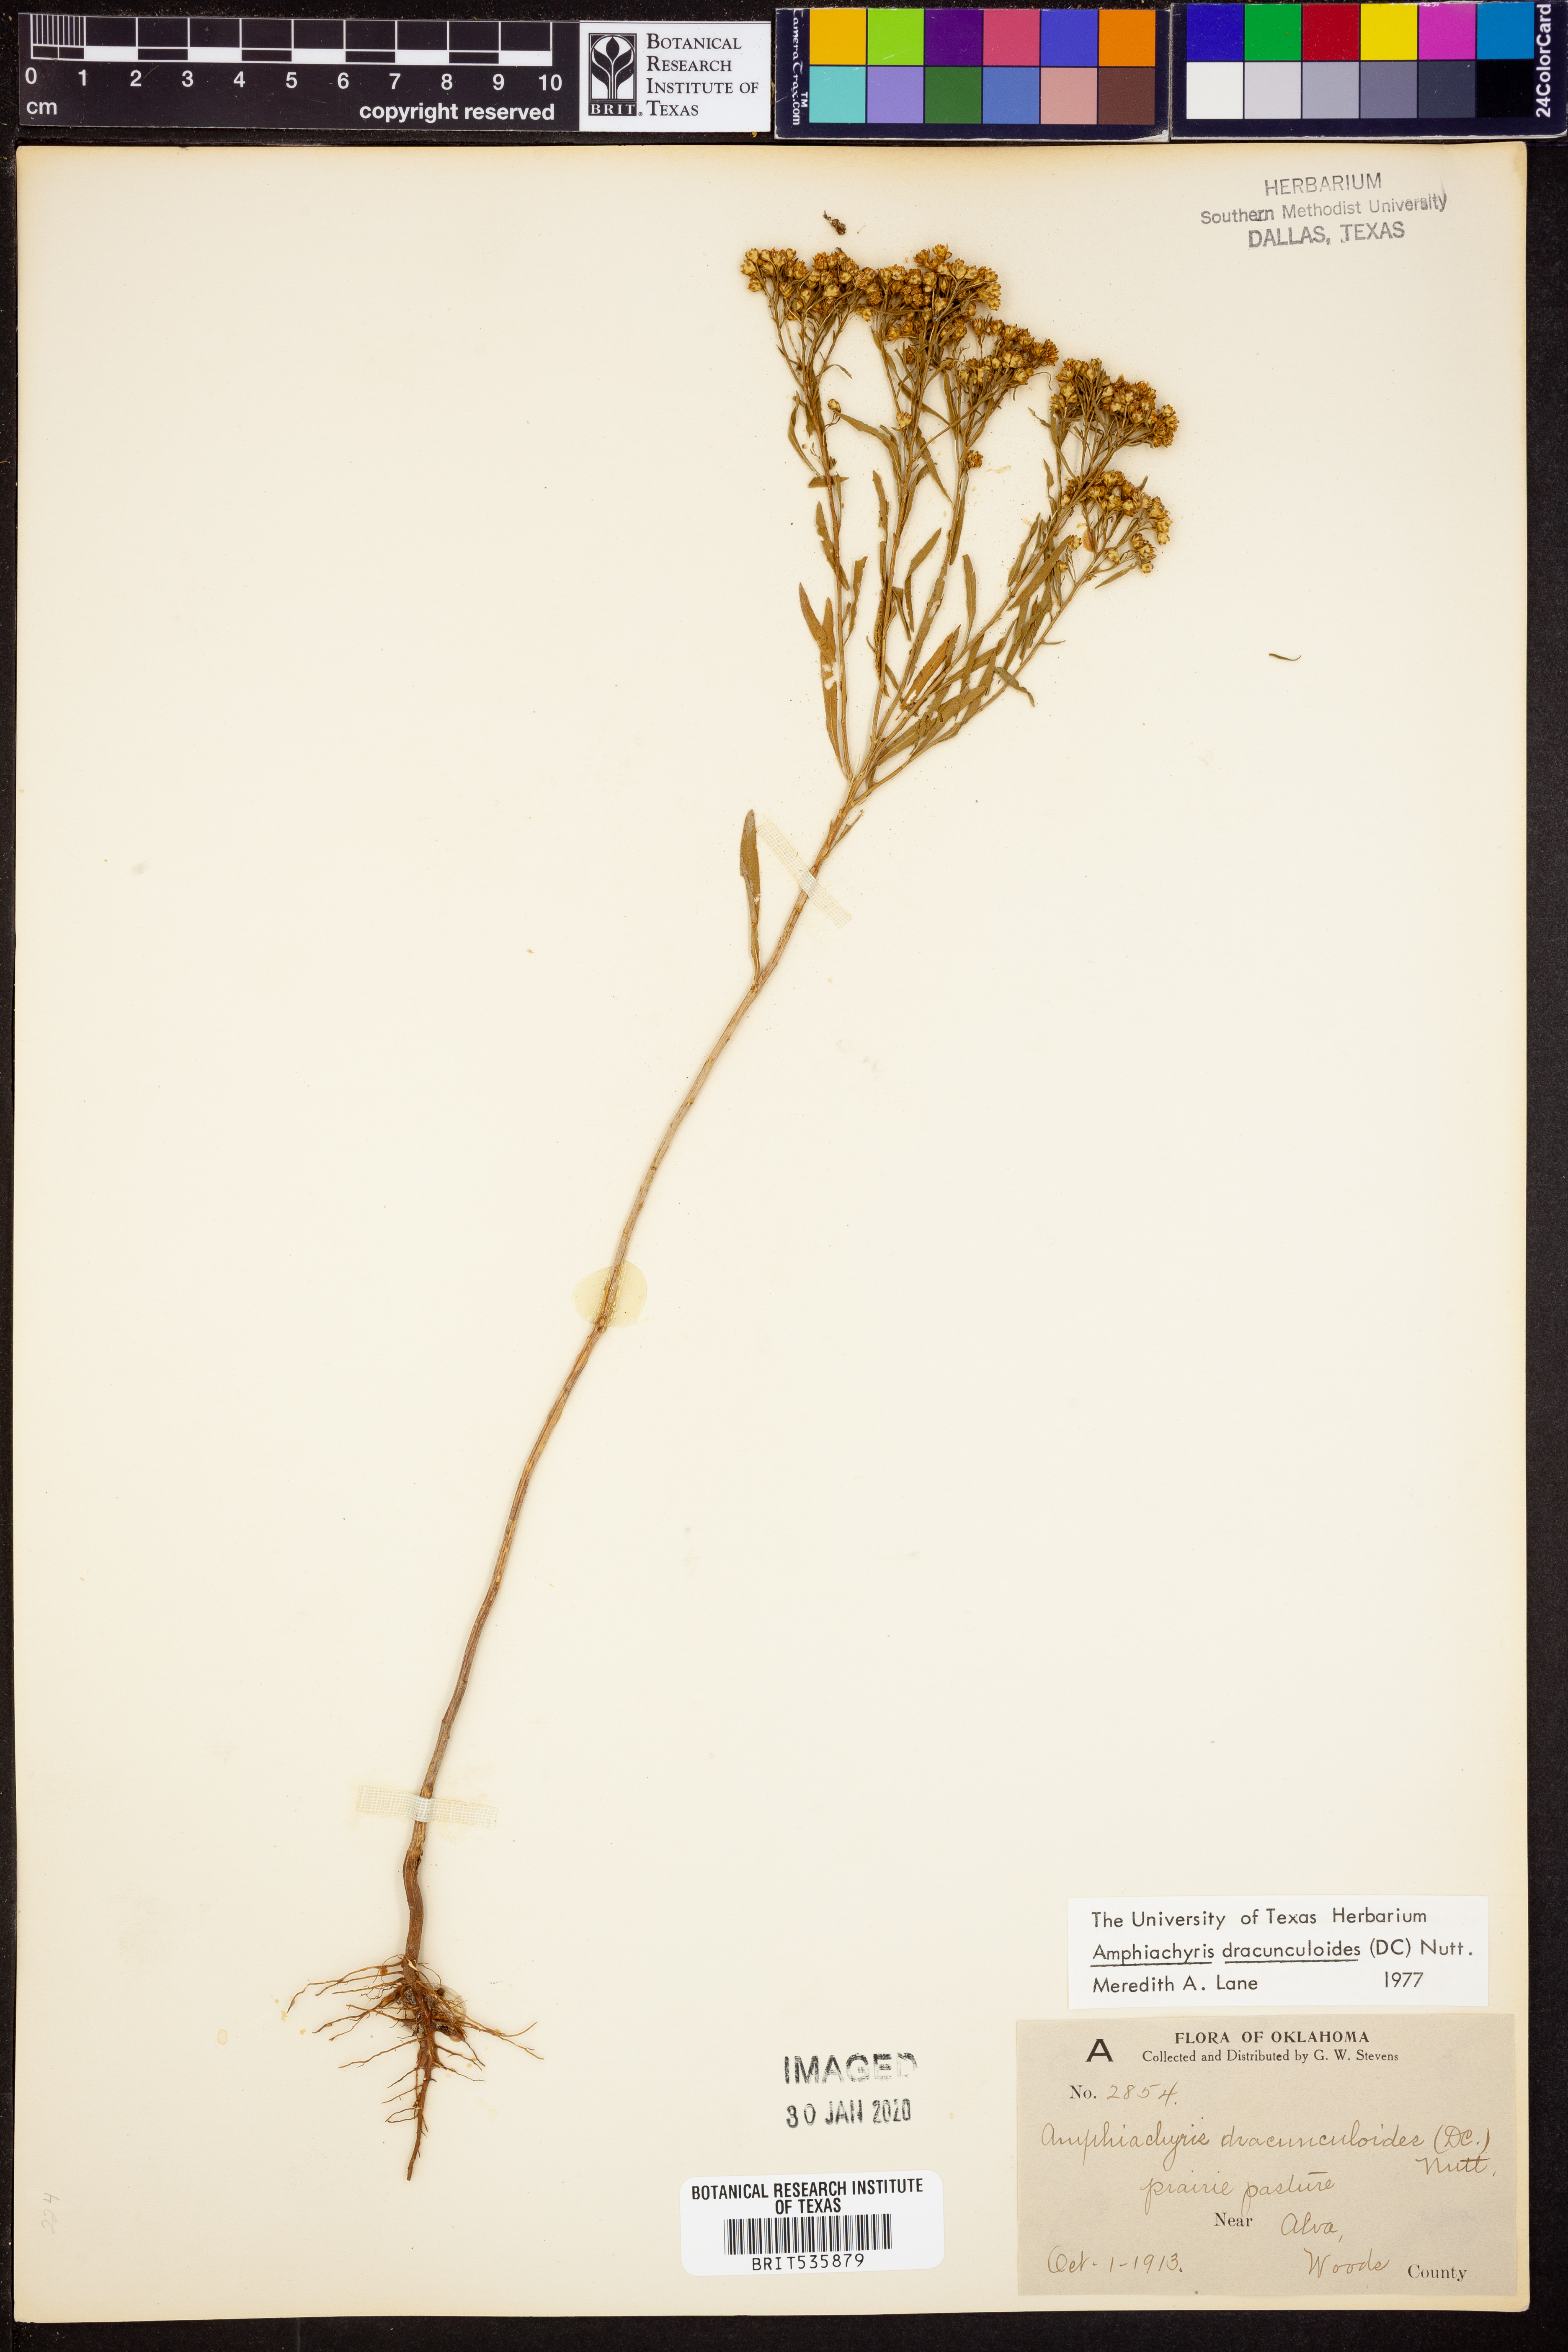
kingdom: Plantae
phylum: Tracheophyta
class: Magnoliopsida
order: Asterales
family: Asteraceae
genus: Amphiachyris
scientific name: Amphiachyris dracunculoides
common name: Broomweed
